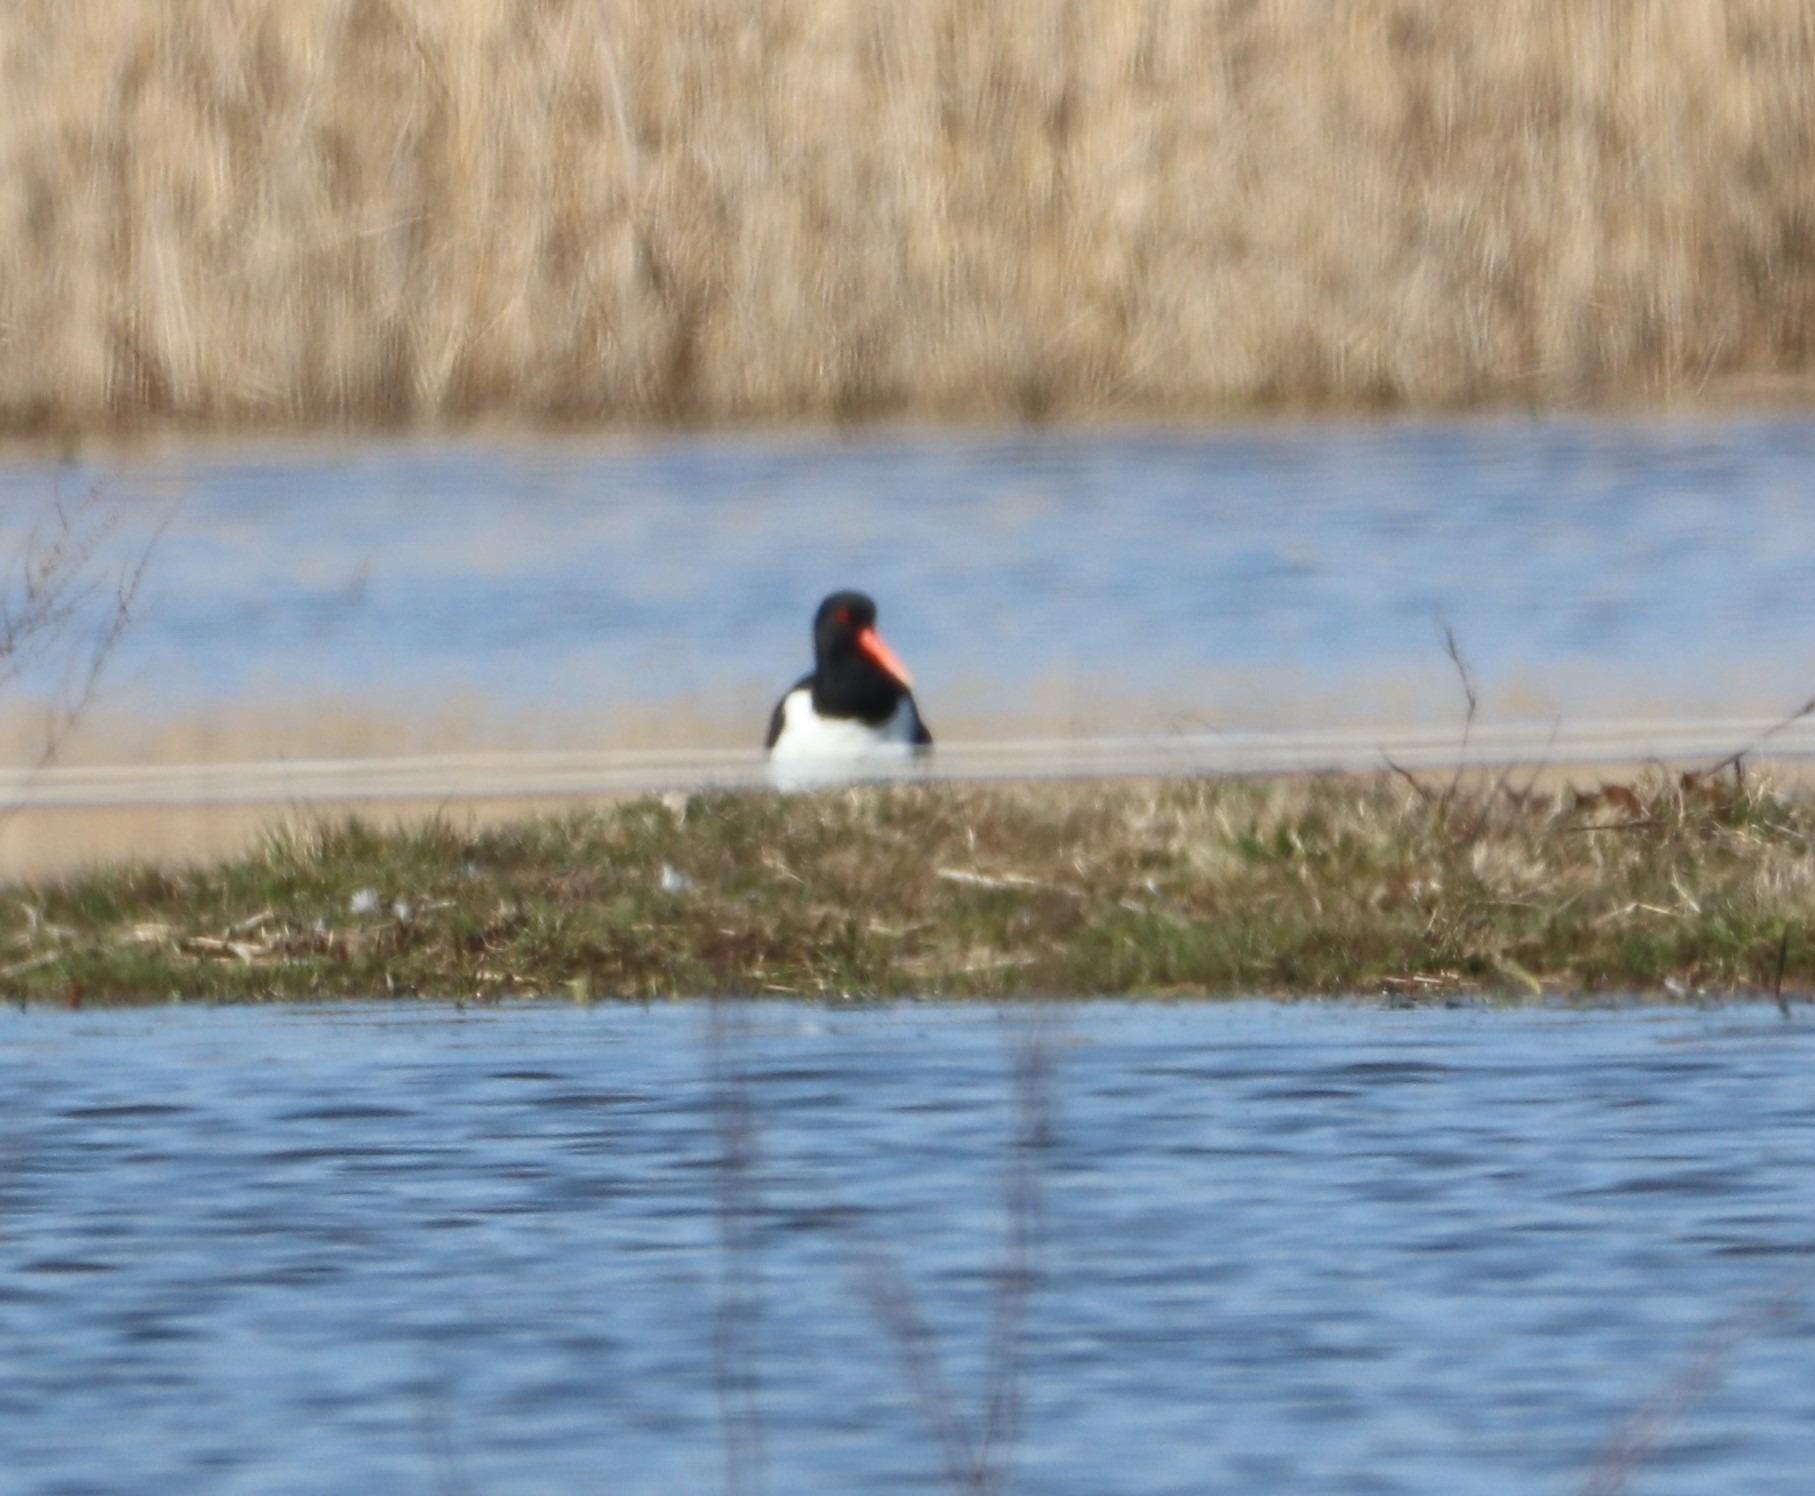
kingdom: Animalia
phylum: Chordata
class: Aves
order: Charadriiformes
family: Haematopodidae
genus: Haematopus
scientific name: Haematopus ostralegus
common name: Strandskade
